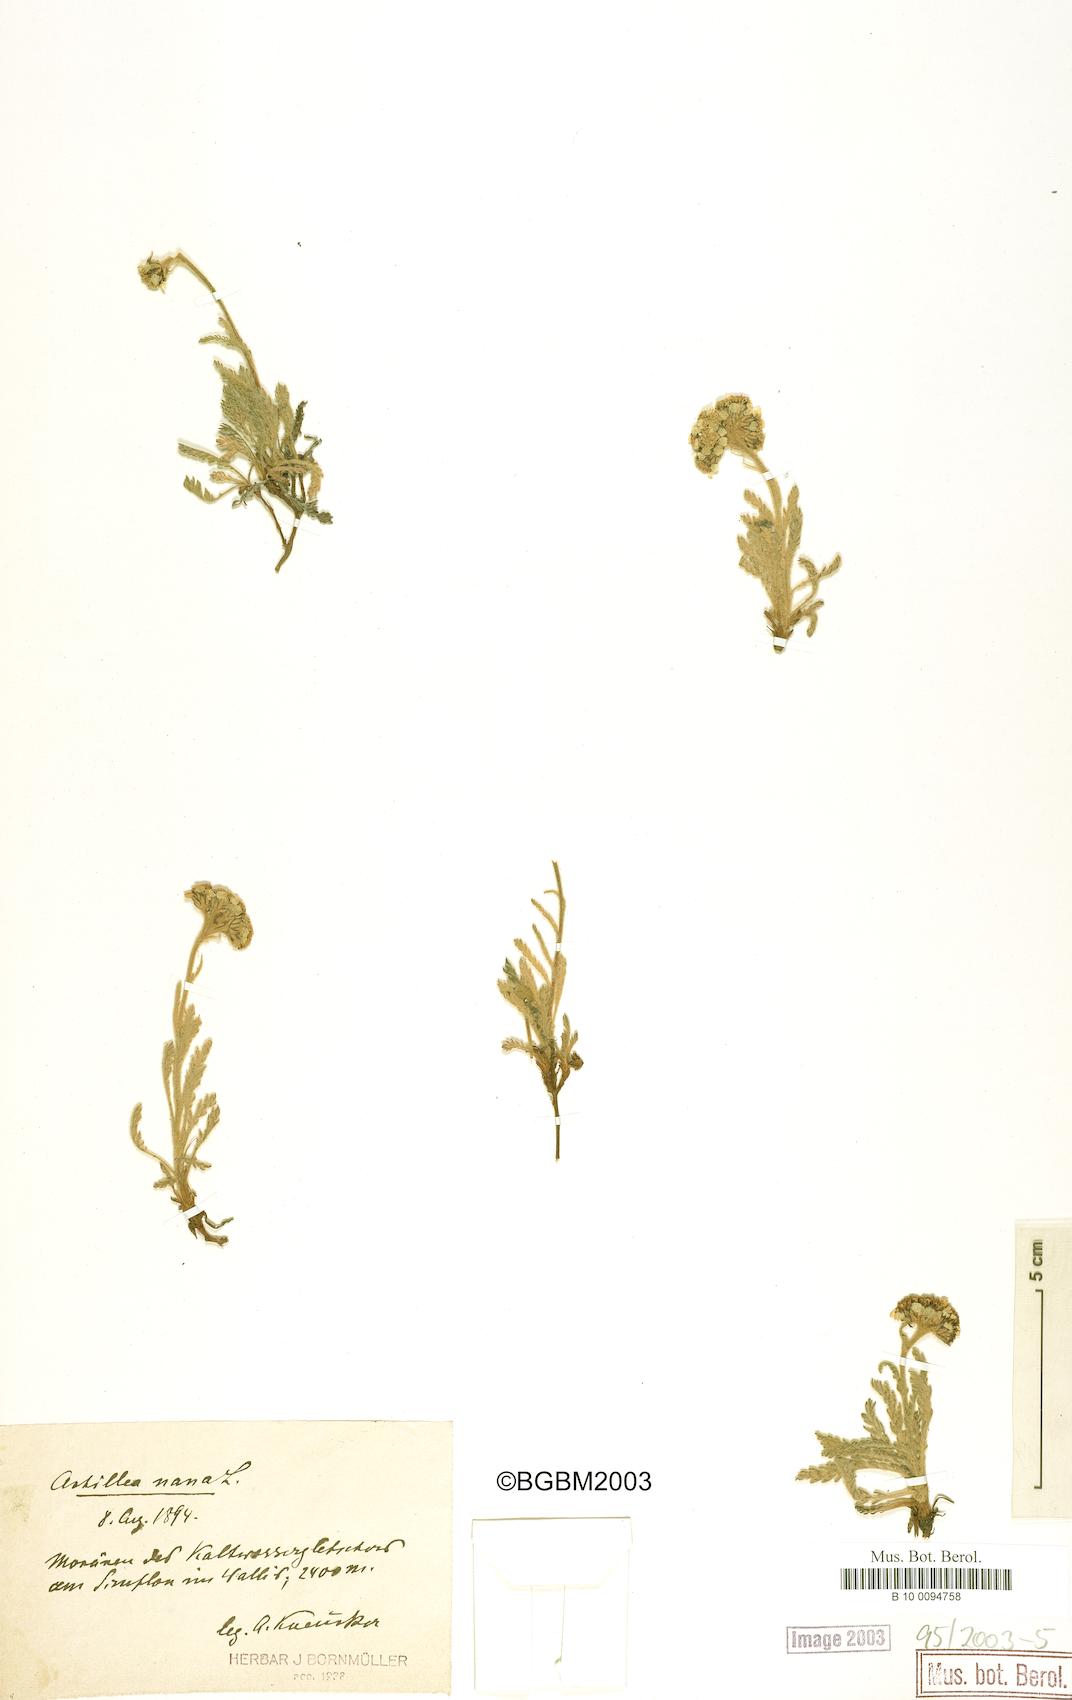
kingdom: Plantae
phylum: Tracheophyta
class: Magnoliopsida
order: Asterales
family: Asteraceae
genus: Achillea
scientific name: Achillea nana
